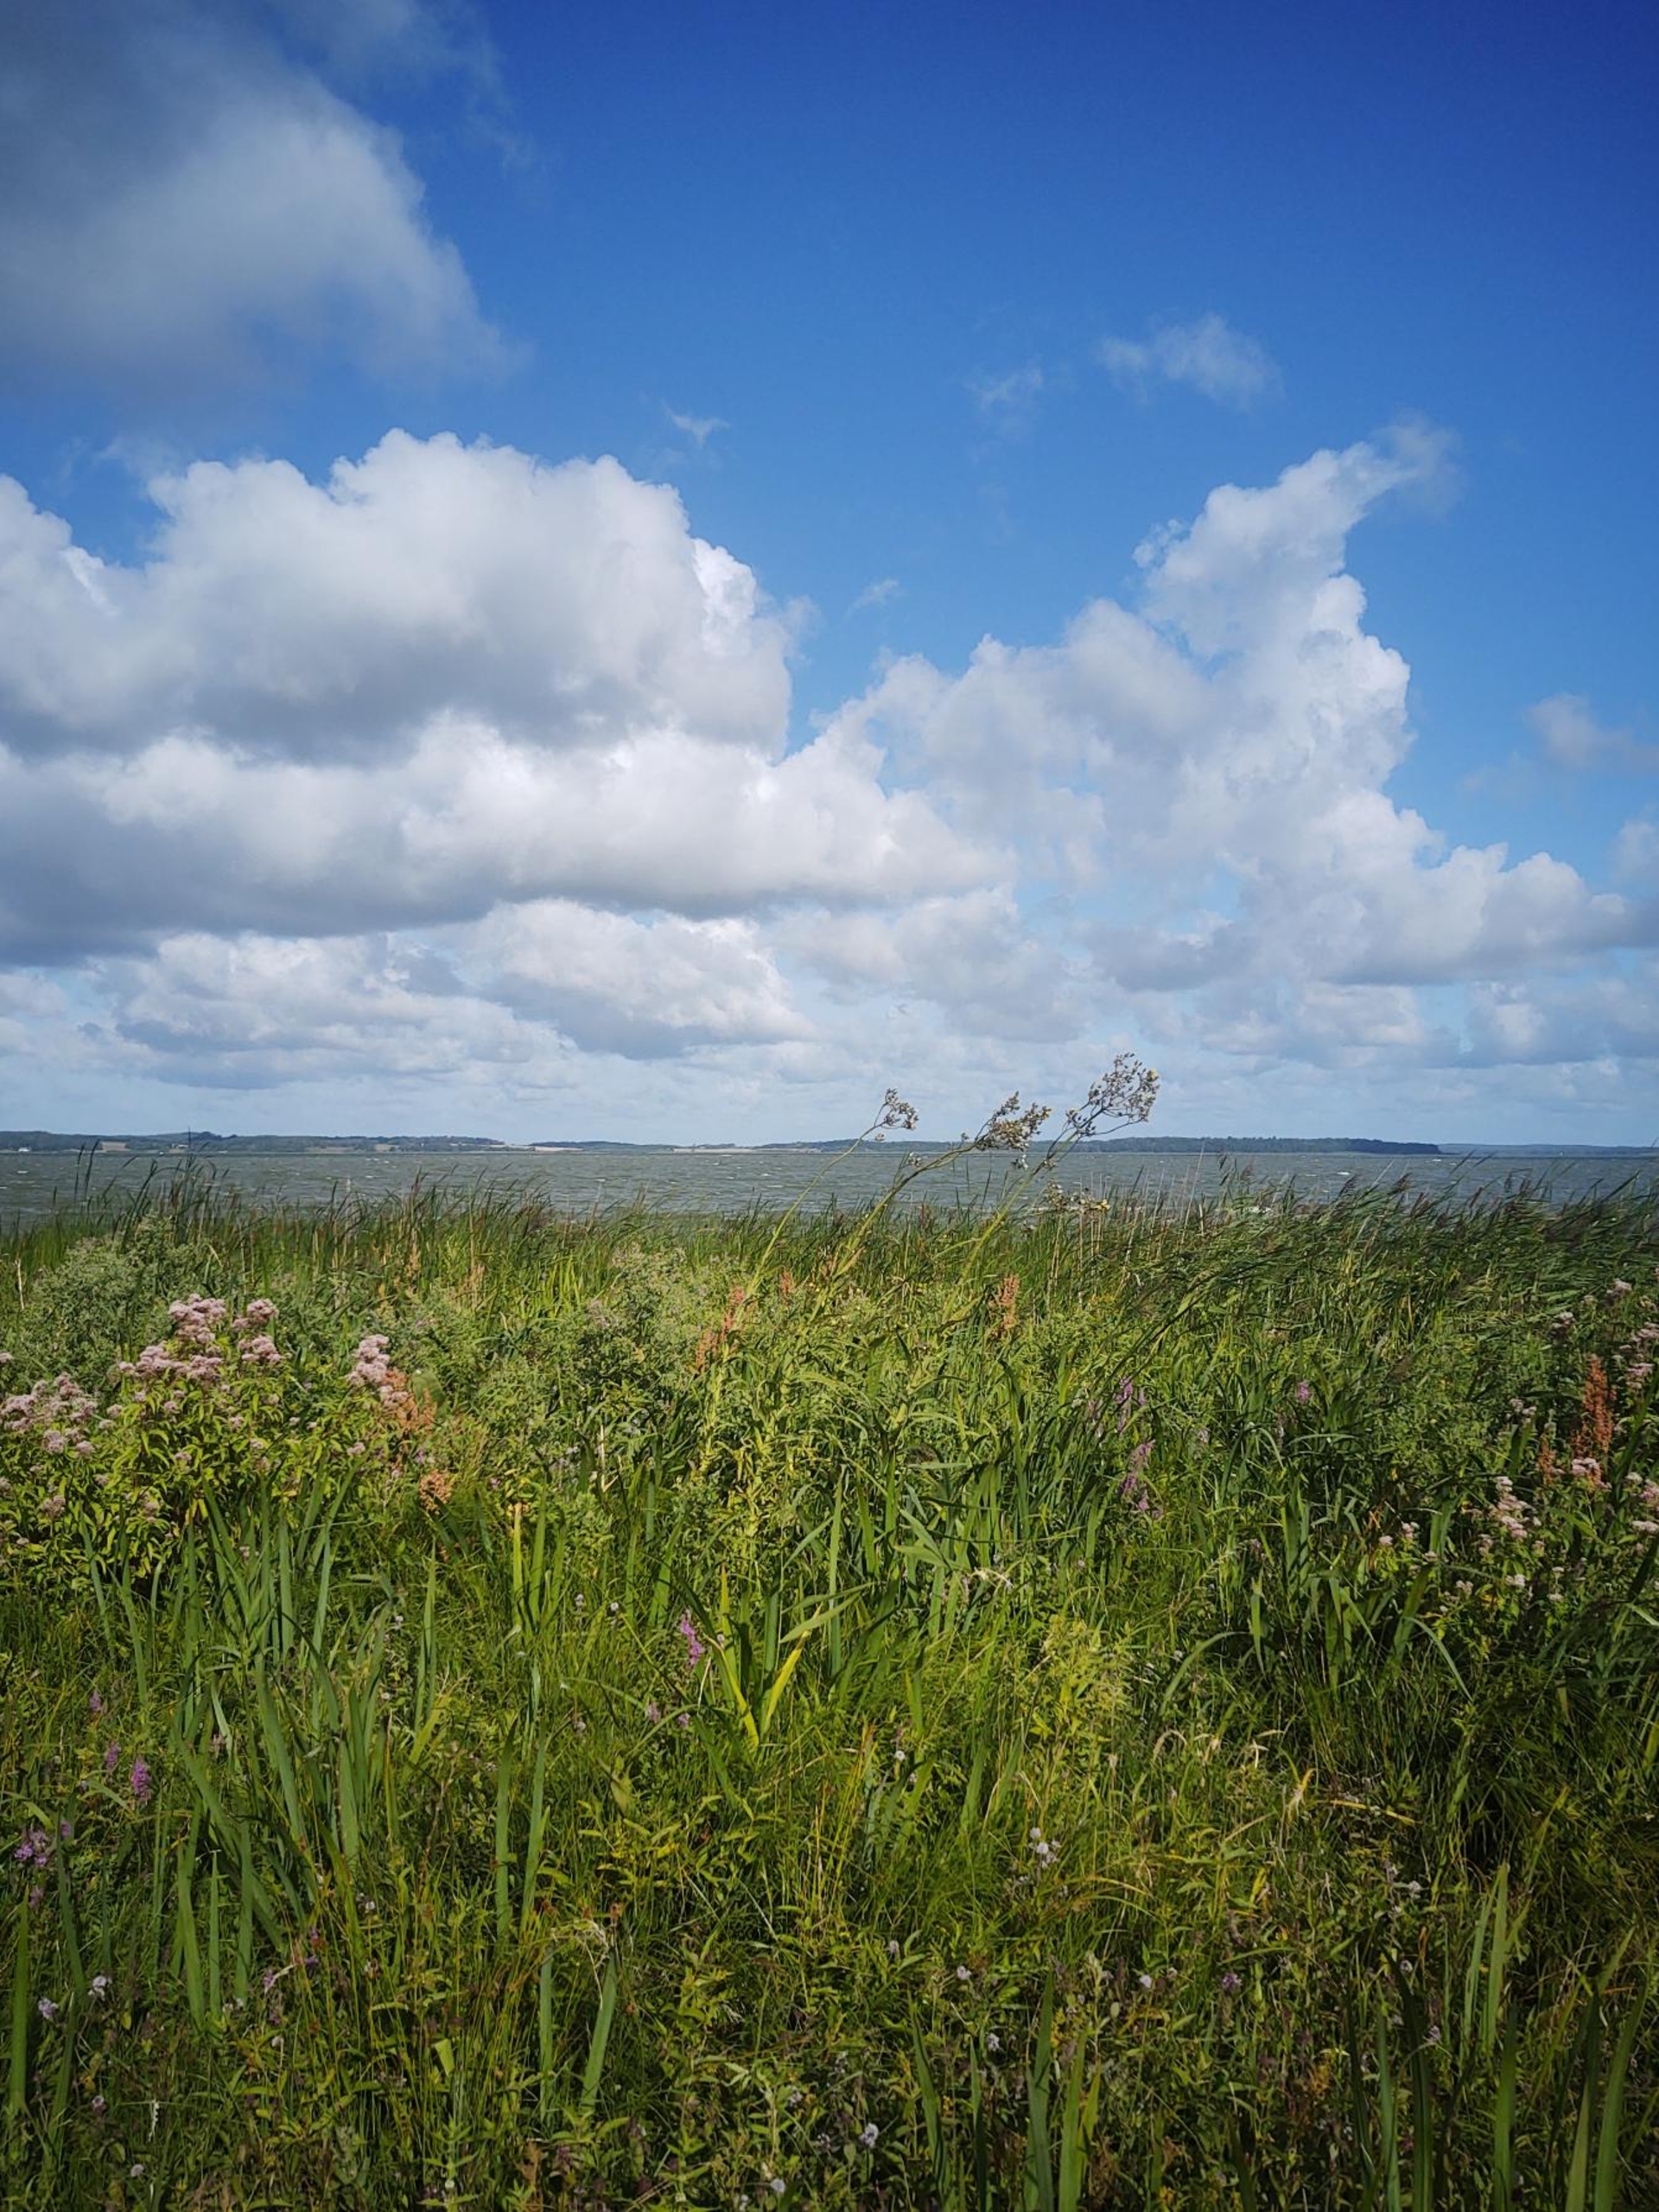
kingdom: Plantae
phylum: Tracheophyta
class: Magnoliopsida
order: Asterales
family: Asteraceae
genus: Sonchus
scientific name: Sonchus palustris
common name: Kær-svinemælk
